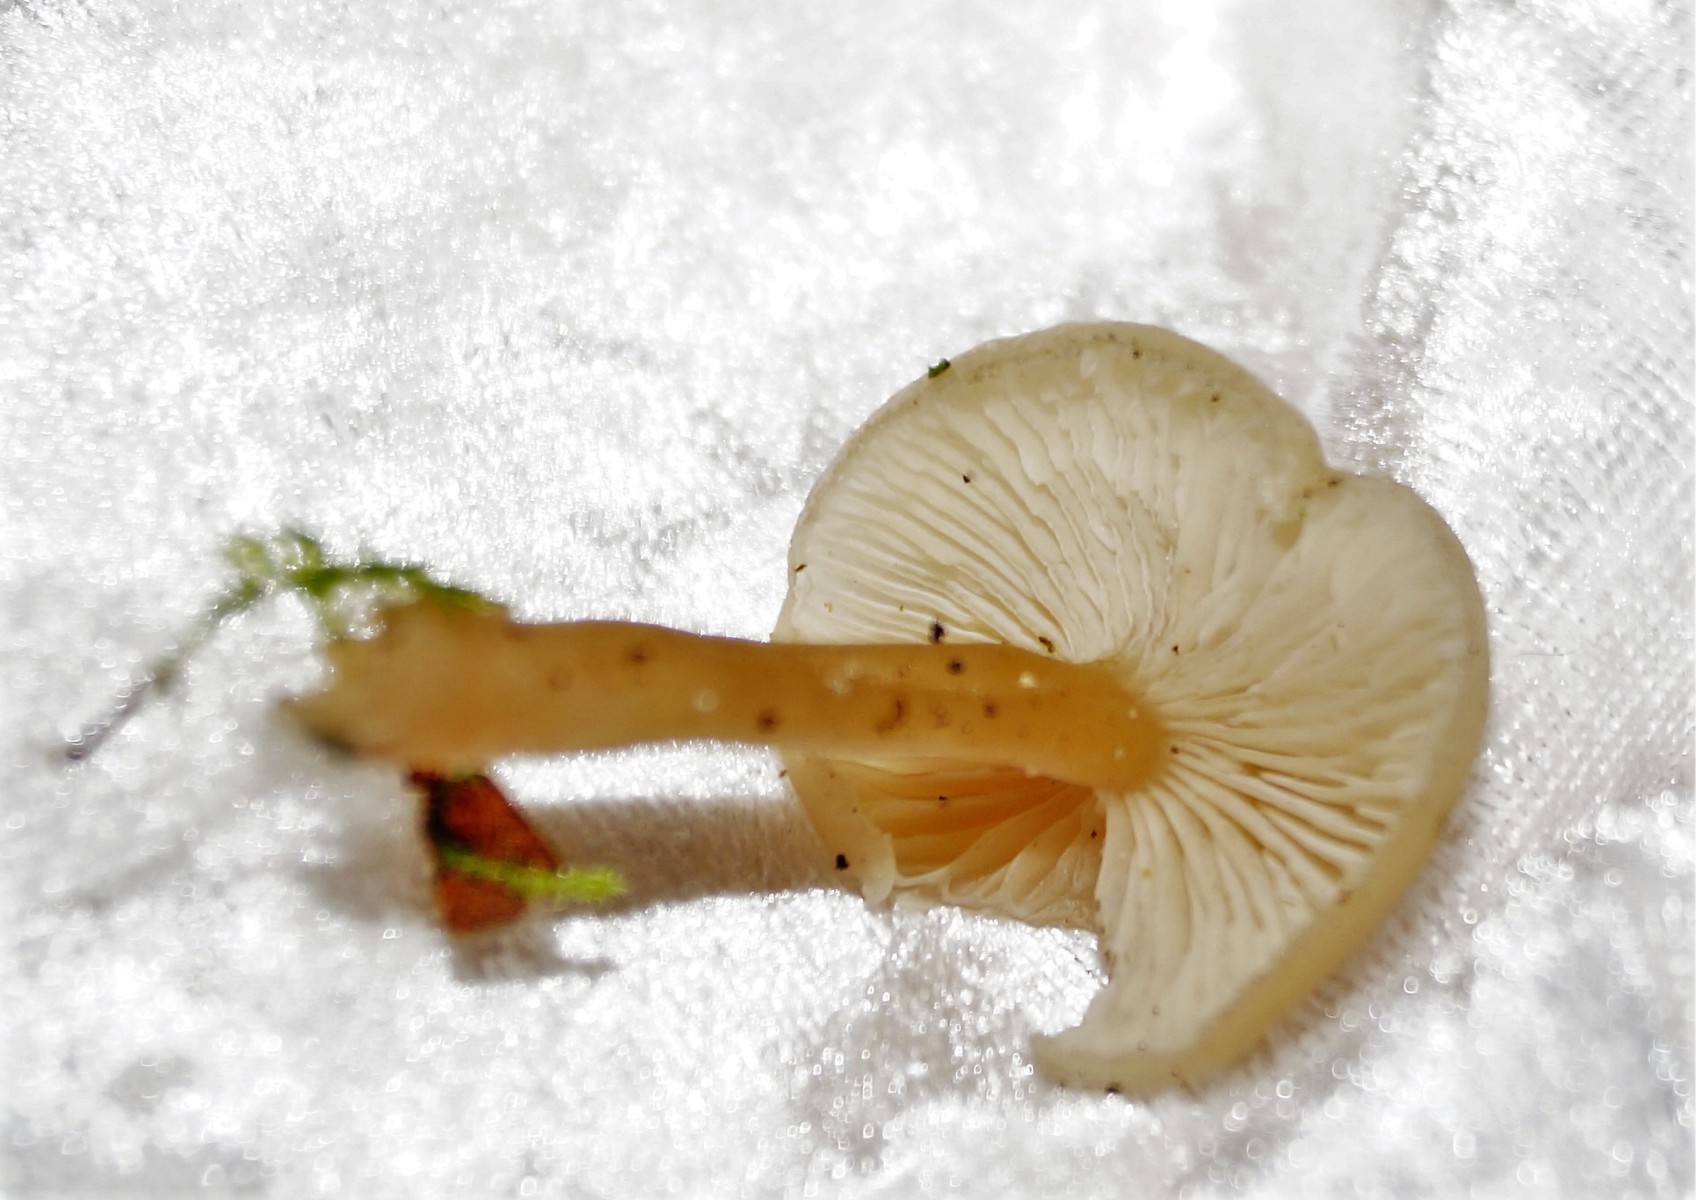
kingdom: Fungi
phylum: Basidiomycota
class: Agaricomycetes
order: Agaricales
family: Tricholomataceae
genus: Clitocybe
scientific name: Clitocybe fragrans
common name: vellugtende tragthat
